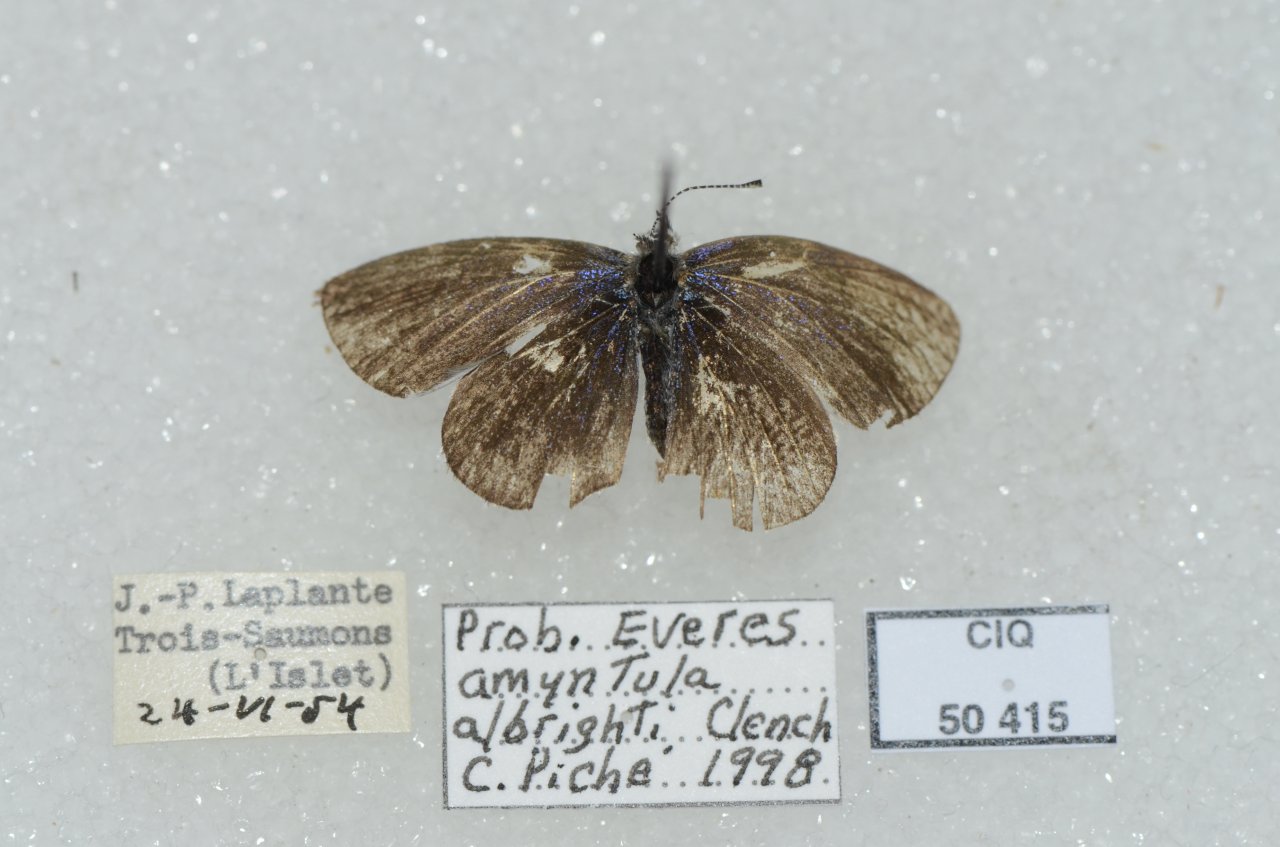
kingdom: Animalia
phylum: Arthropoda
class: Insecta
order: Lepidoptera
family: Lycaenidae
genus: Elkalyce
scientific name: Elkalyce amyntula
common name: Western Tailed-Blue
